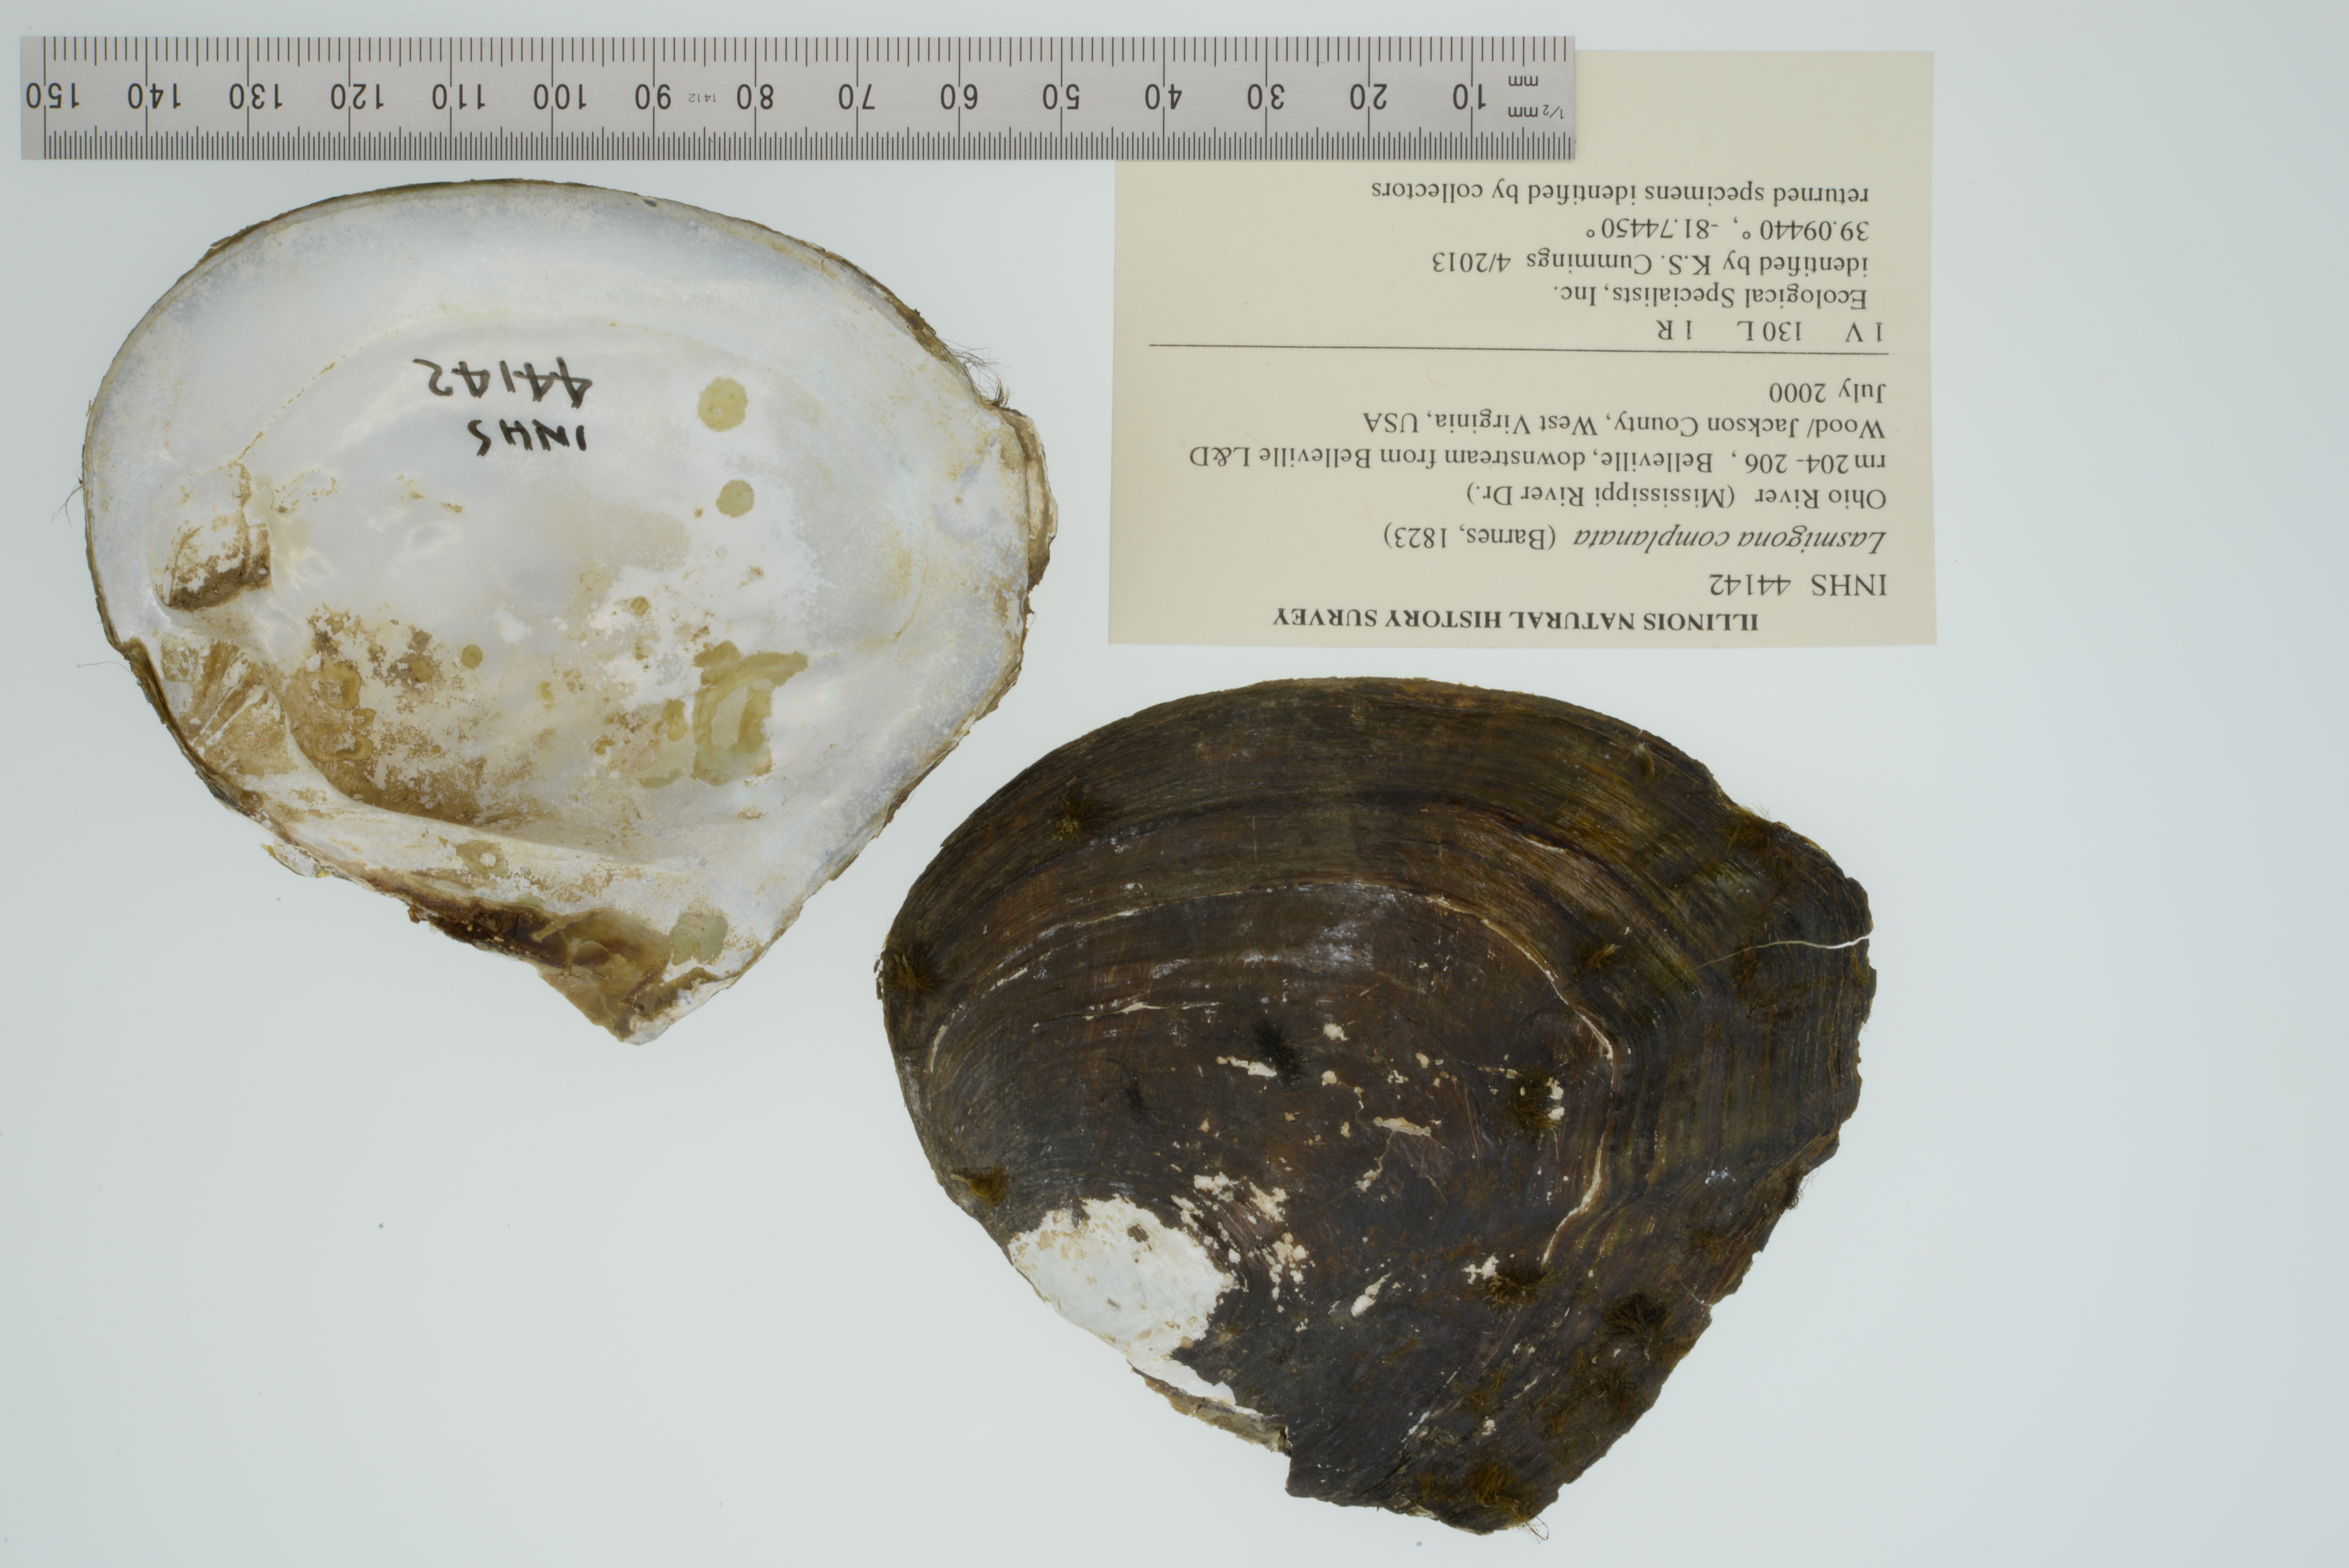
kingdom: Animalia
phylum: Mollusca
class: Bivalvia
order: Unionida
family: Unionidae
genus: Lasmigona
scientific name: Lasmigona complanata
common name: White heelsplitter
